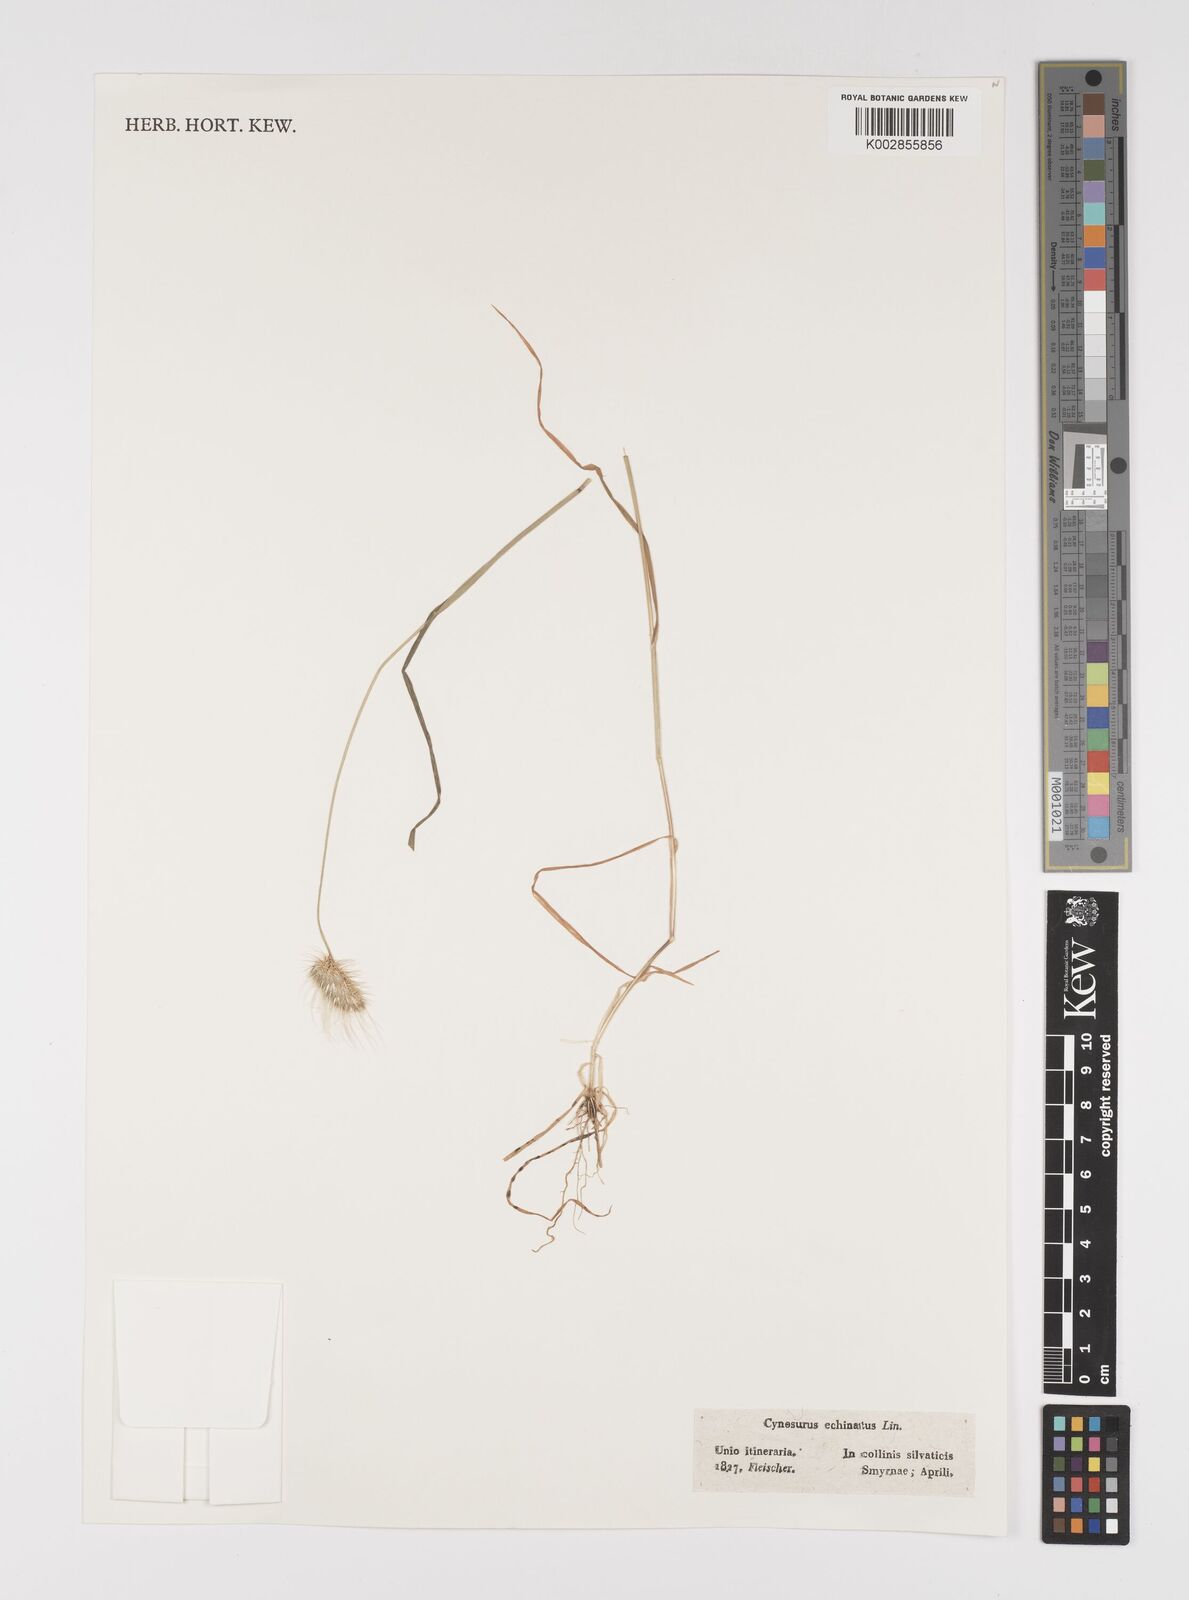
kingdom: Plantae
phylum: Tracheophyta
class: Liliopsida
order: Poales
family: Poaceae
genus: Cynosurus
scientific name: Cynosurus echinatus
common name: Rough dog's-tail
